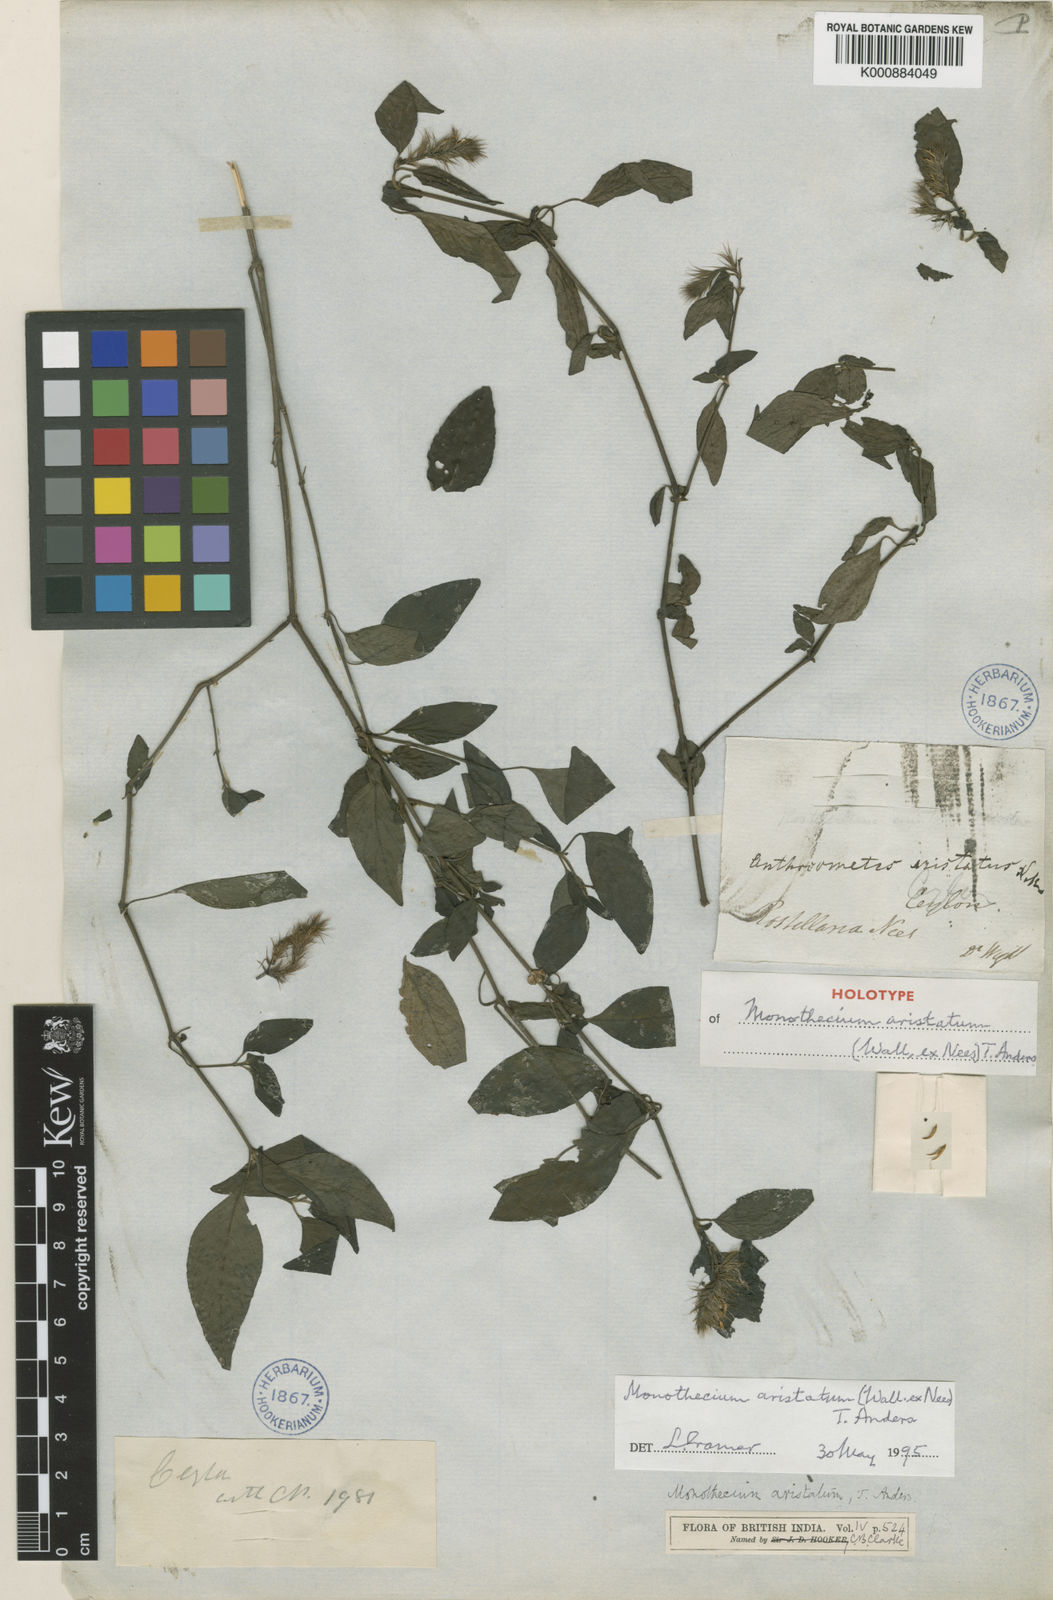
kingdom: Plantae
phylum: Tracheophyta
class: Magnoliopsida
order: Lamiales
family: Acanthaceae
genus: Monothecium
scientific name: Monothecium
